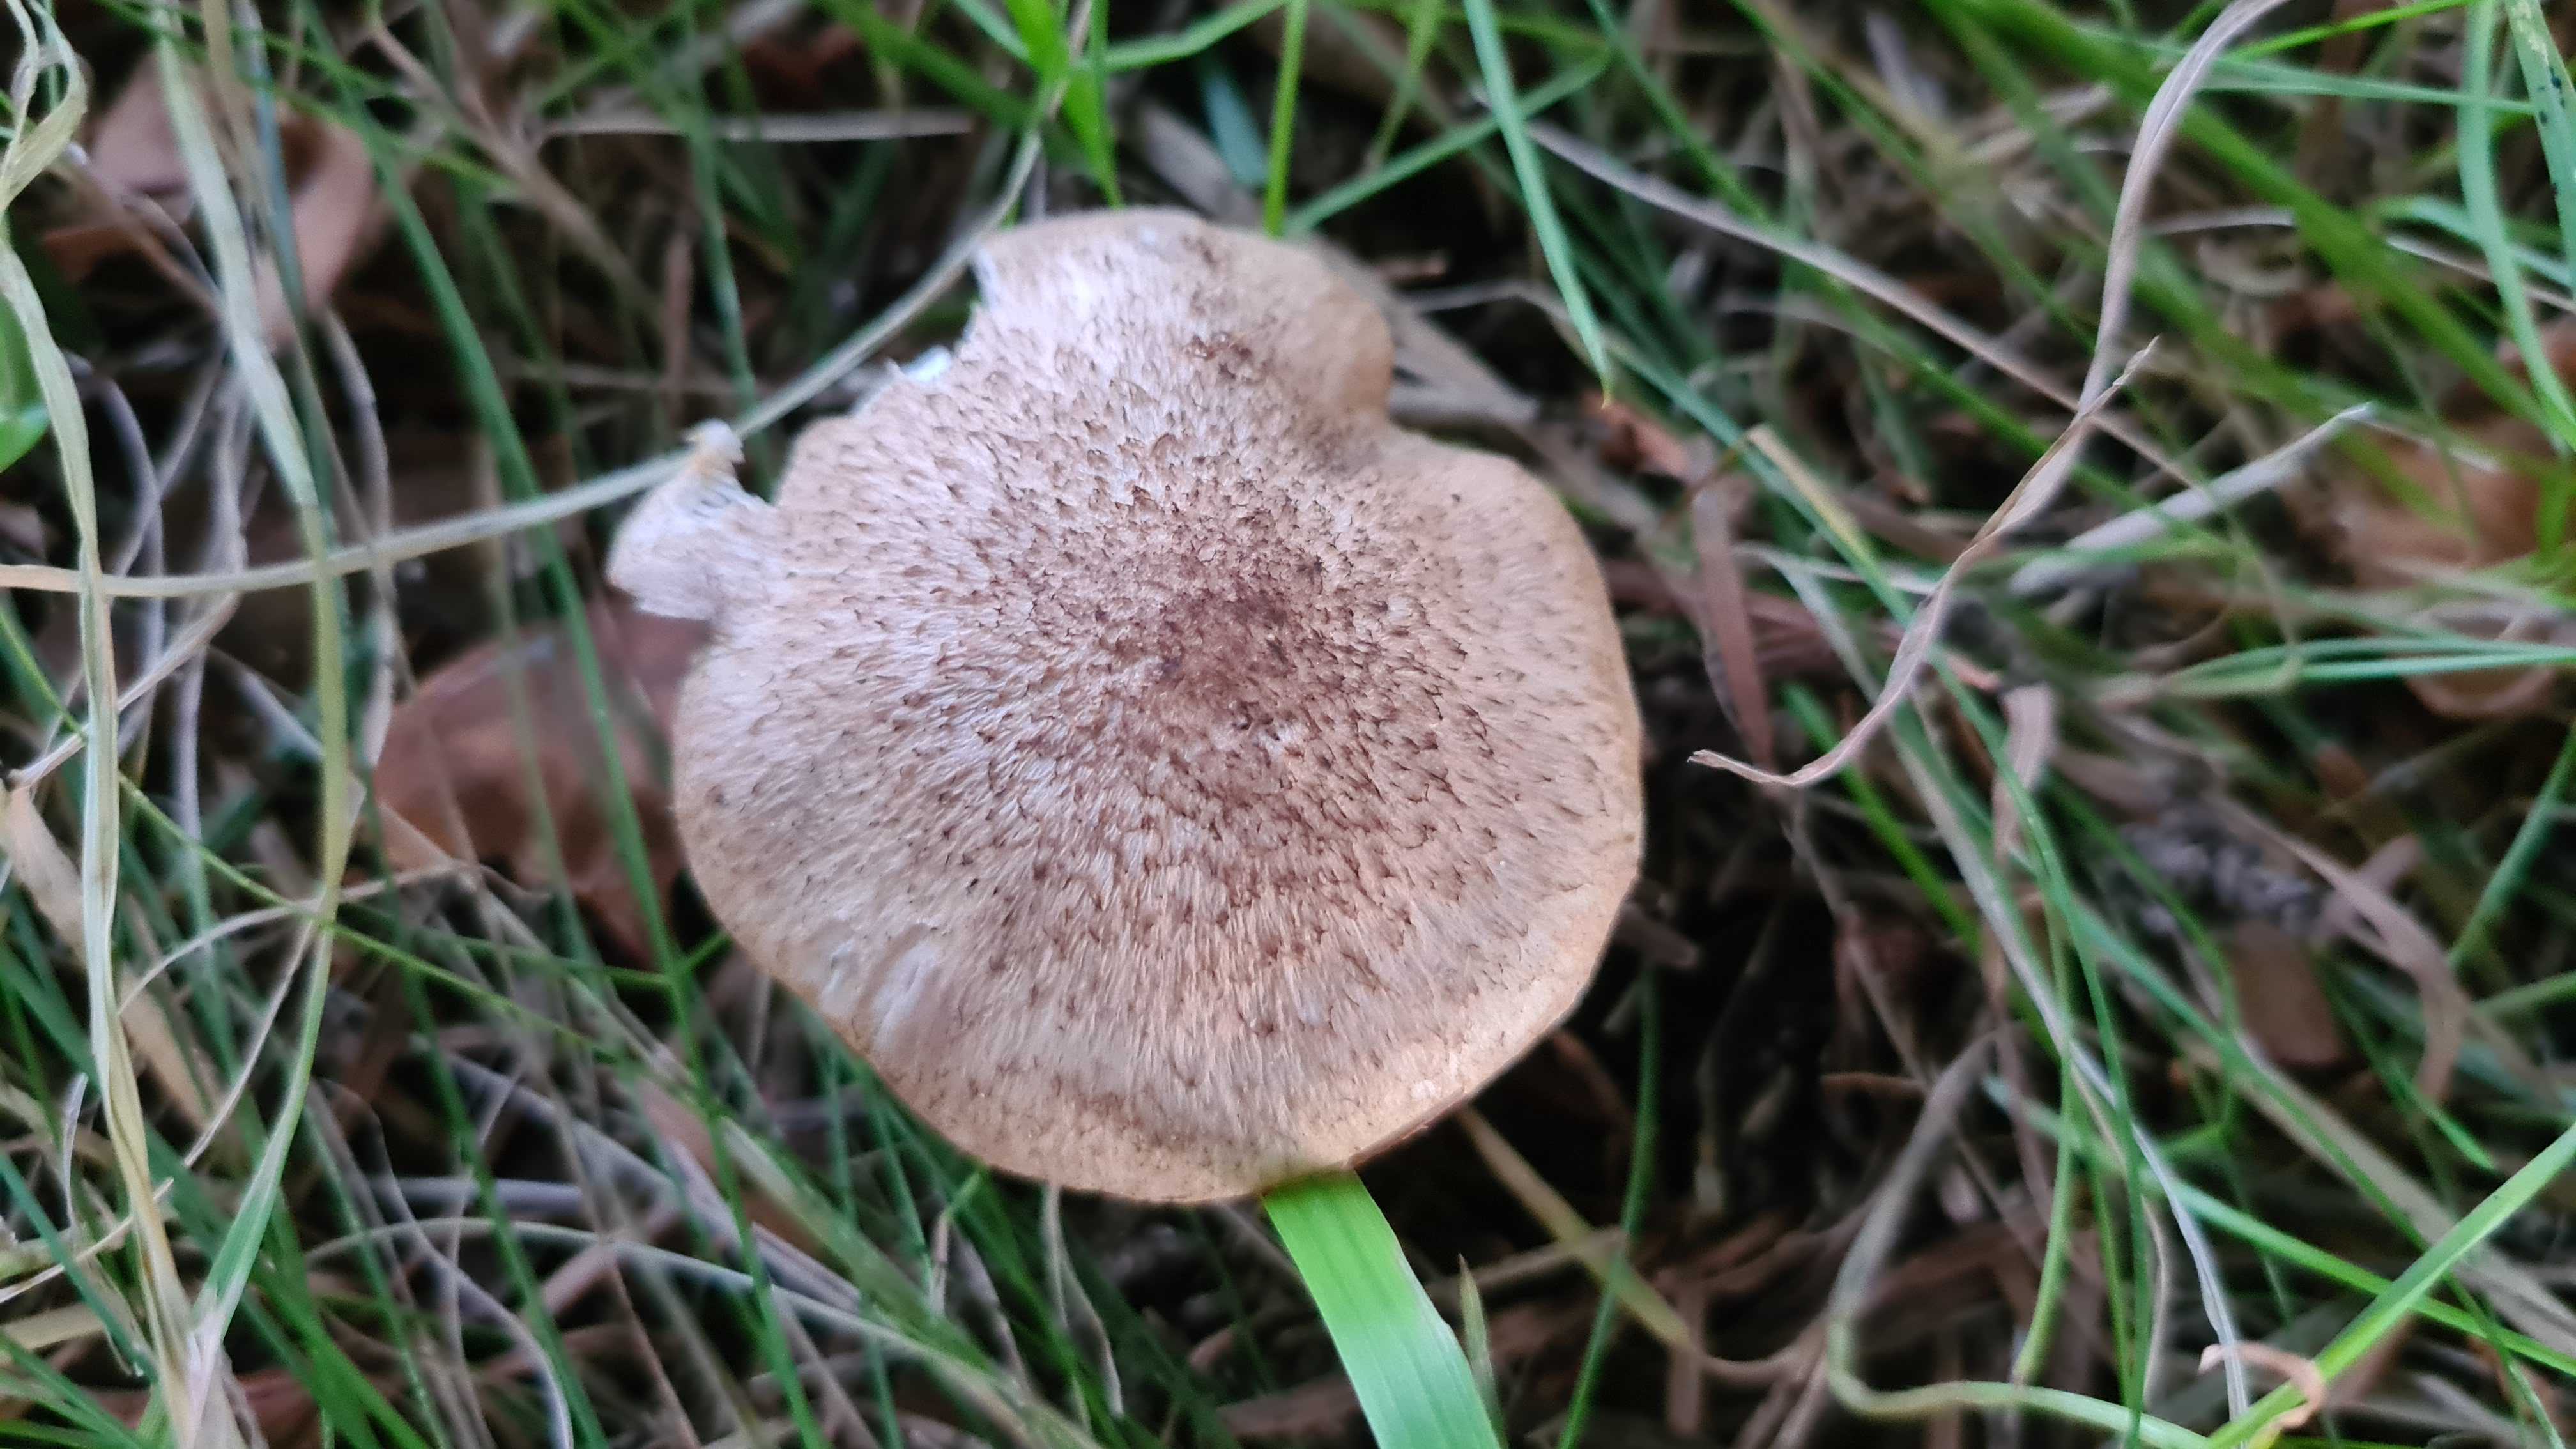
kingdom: Fungi
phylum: Basidiomycota
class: Agaricomycetes
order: Agaricales
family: Tricholomataceae
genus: Tricholoma
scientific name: Tricholoma scalpturatum
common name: gulplettet ridderhat
